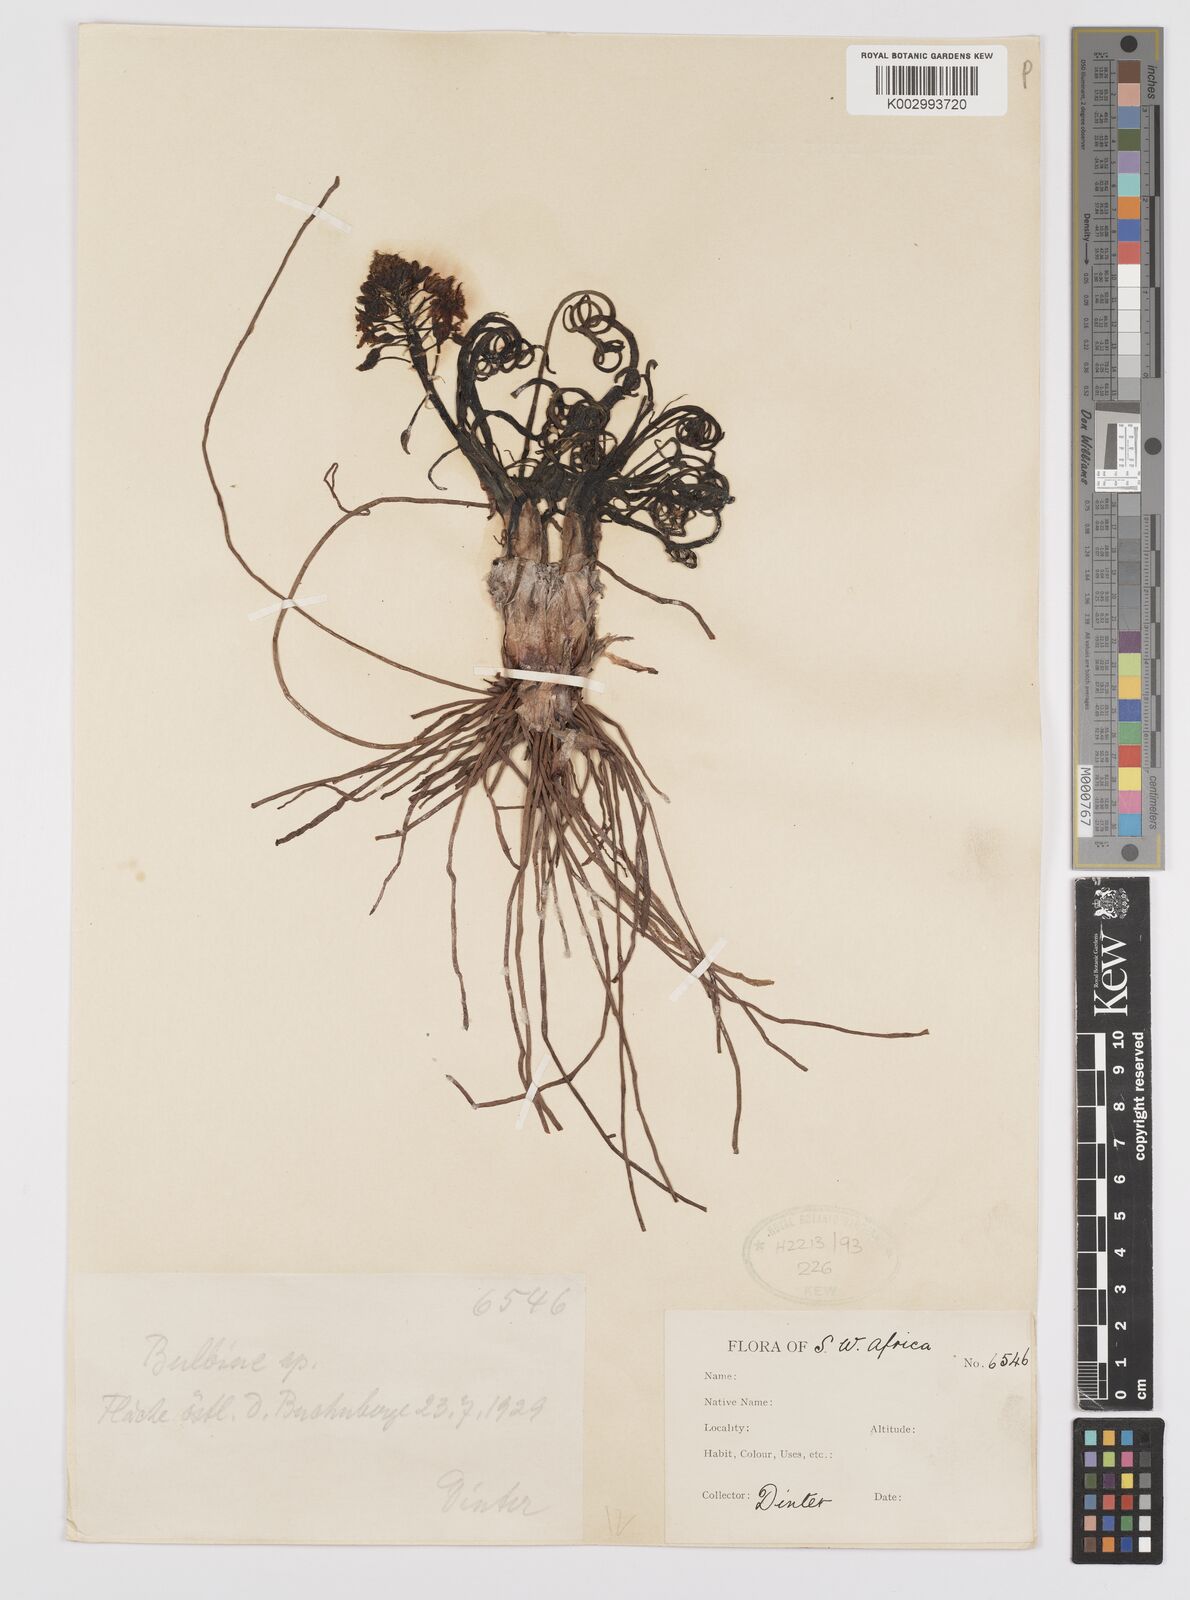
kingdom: Plantae
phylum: Tracheophyta
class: Liliopsida
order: Asparagales
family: Amaryllidaceae
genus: Crinum
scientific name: Crinum
